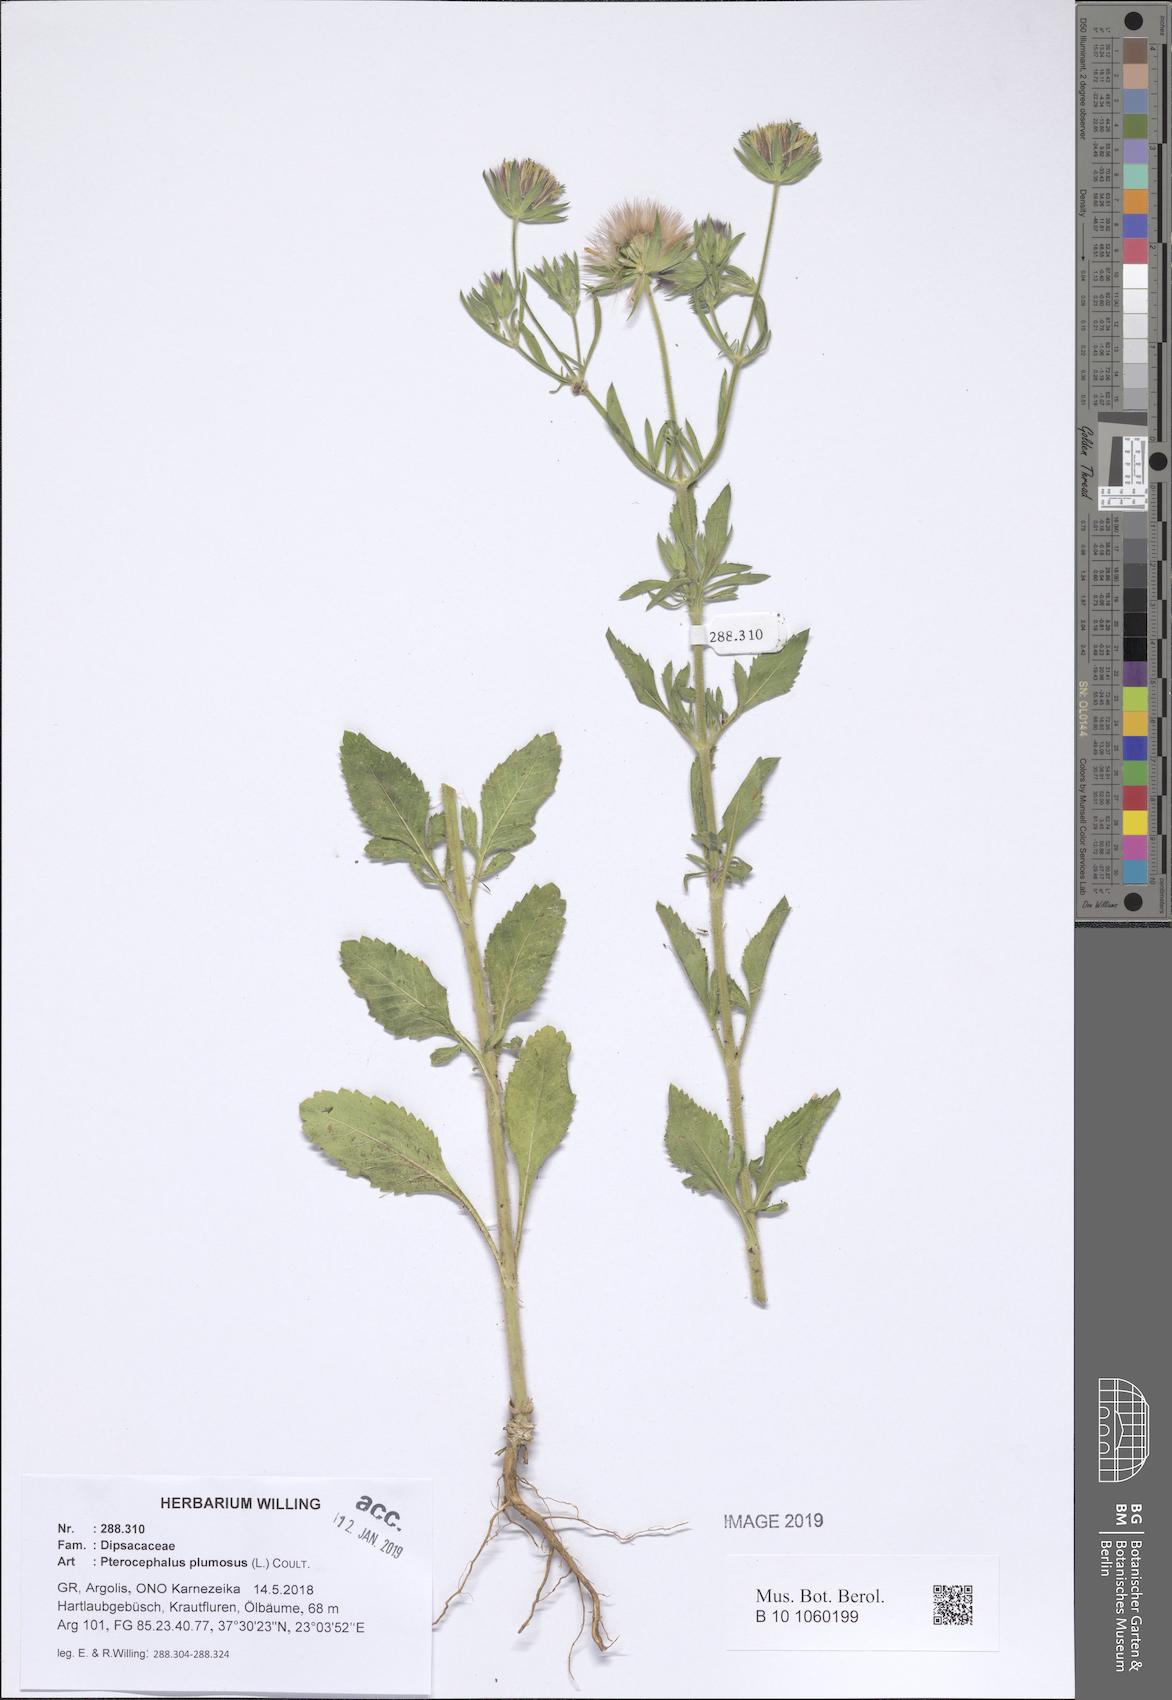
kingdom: Plantae
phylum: Tracheophyta
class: Magnoliopsida
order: Dipsacales
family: Caprifoliaceae
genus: Pterocephalus
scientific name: Pterocephalus plumosus
